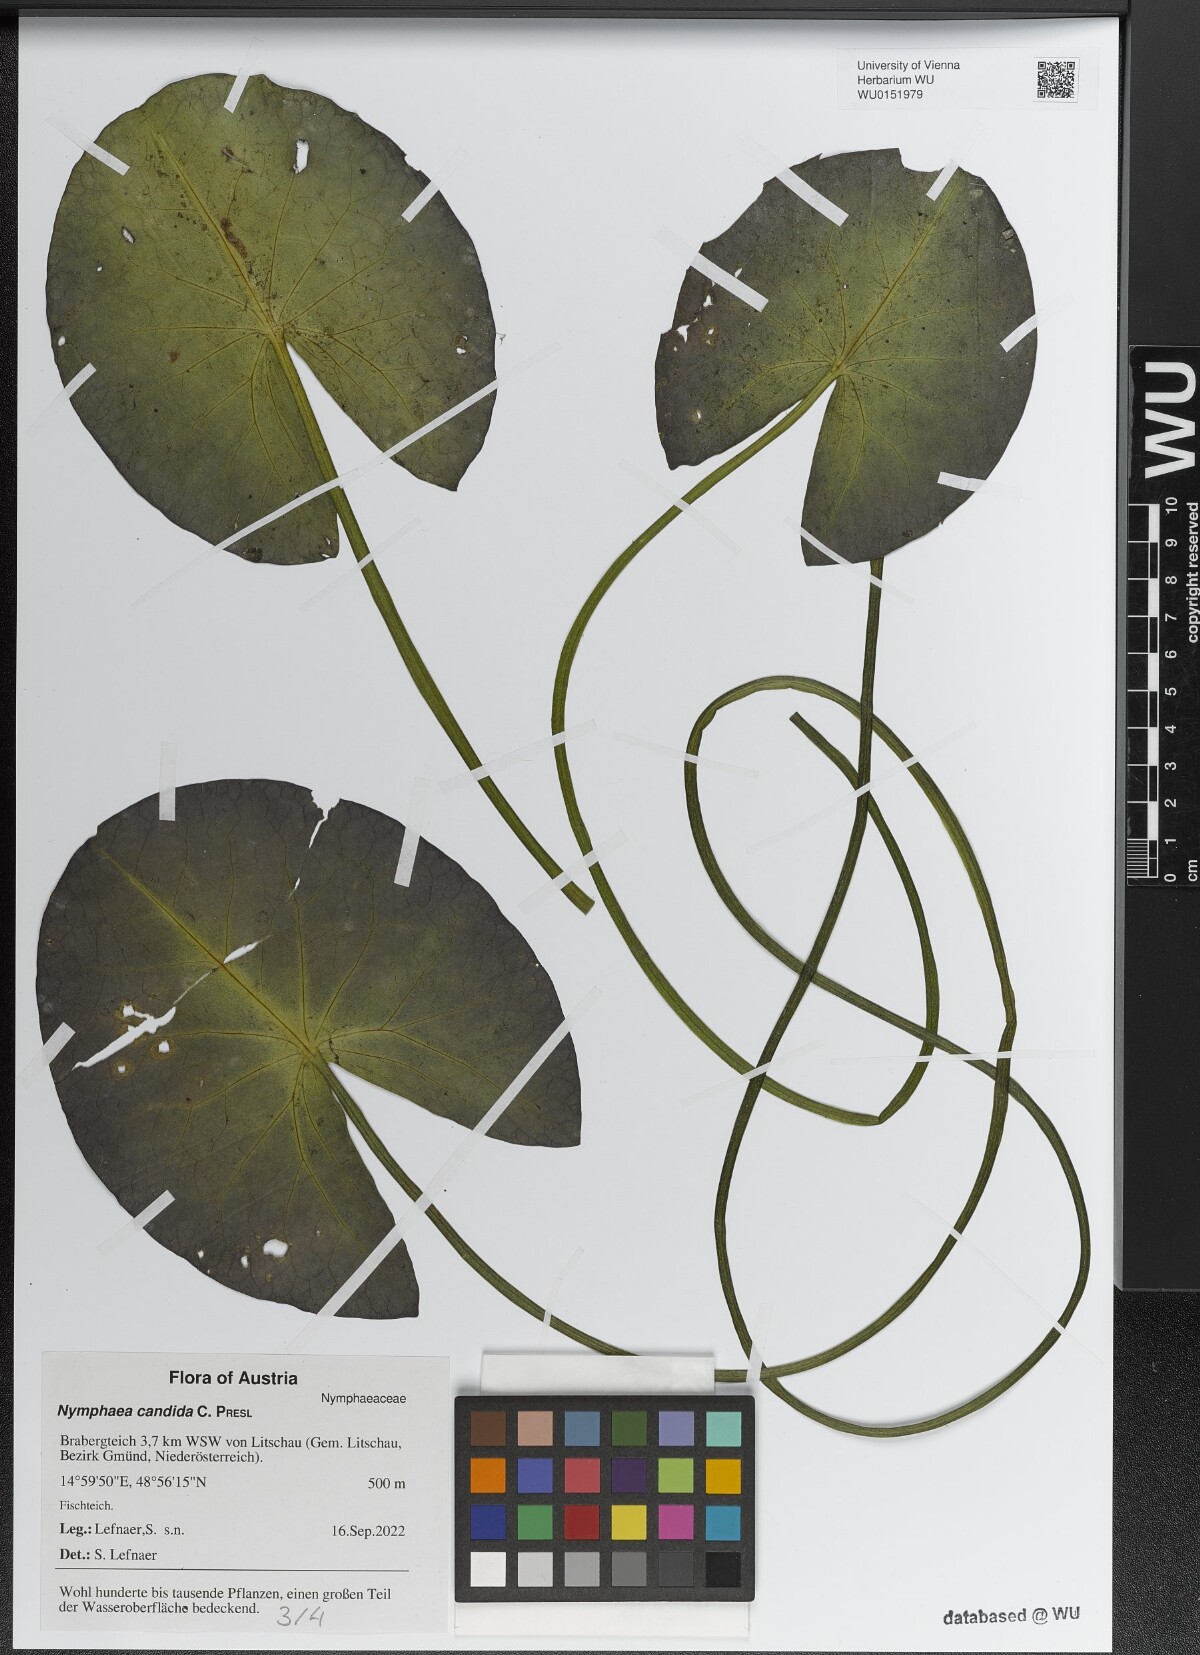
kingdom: Plantae
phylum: Tracheophyta
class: Magnoliopsida
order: Nymphaeales
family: Nymphaeaceae
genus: Nymphaea
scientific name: Nymphaea candida
